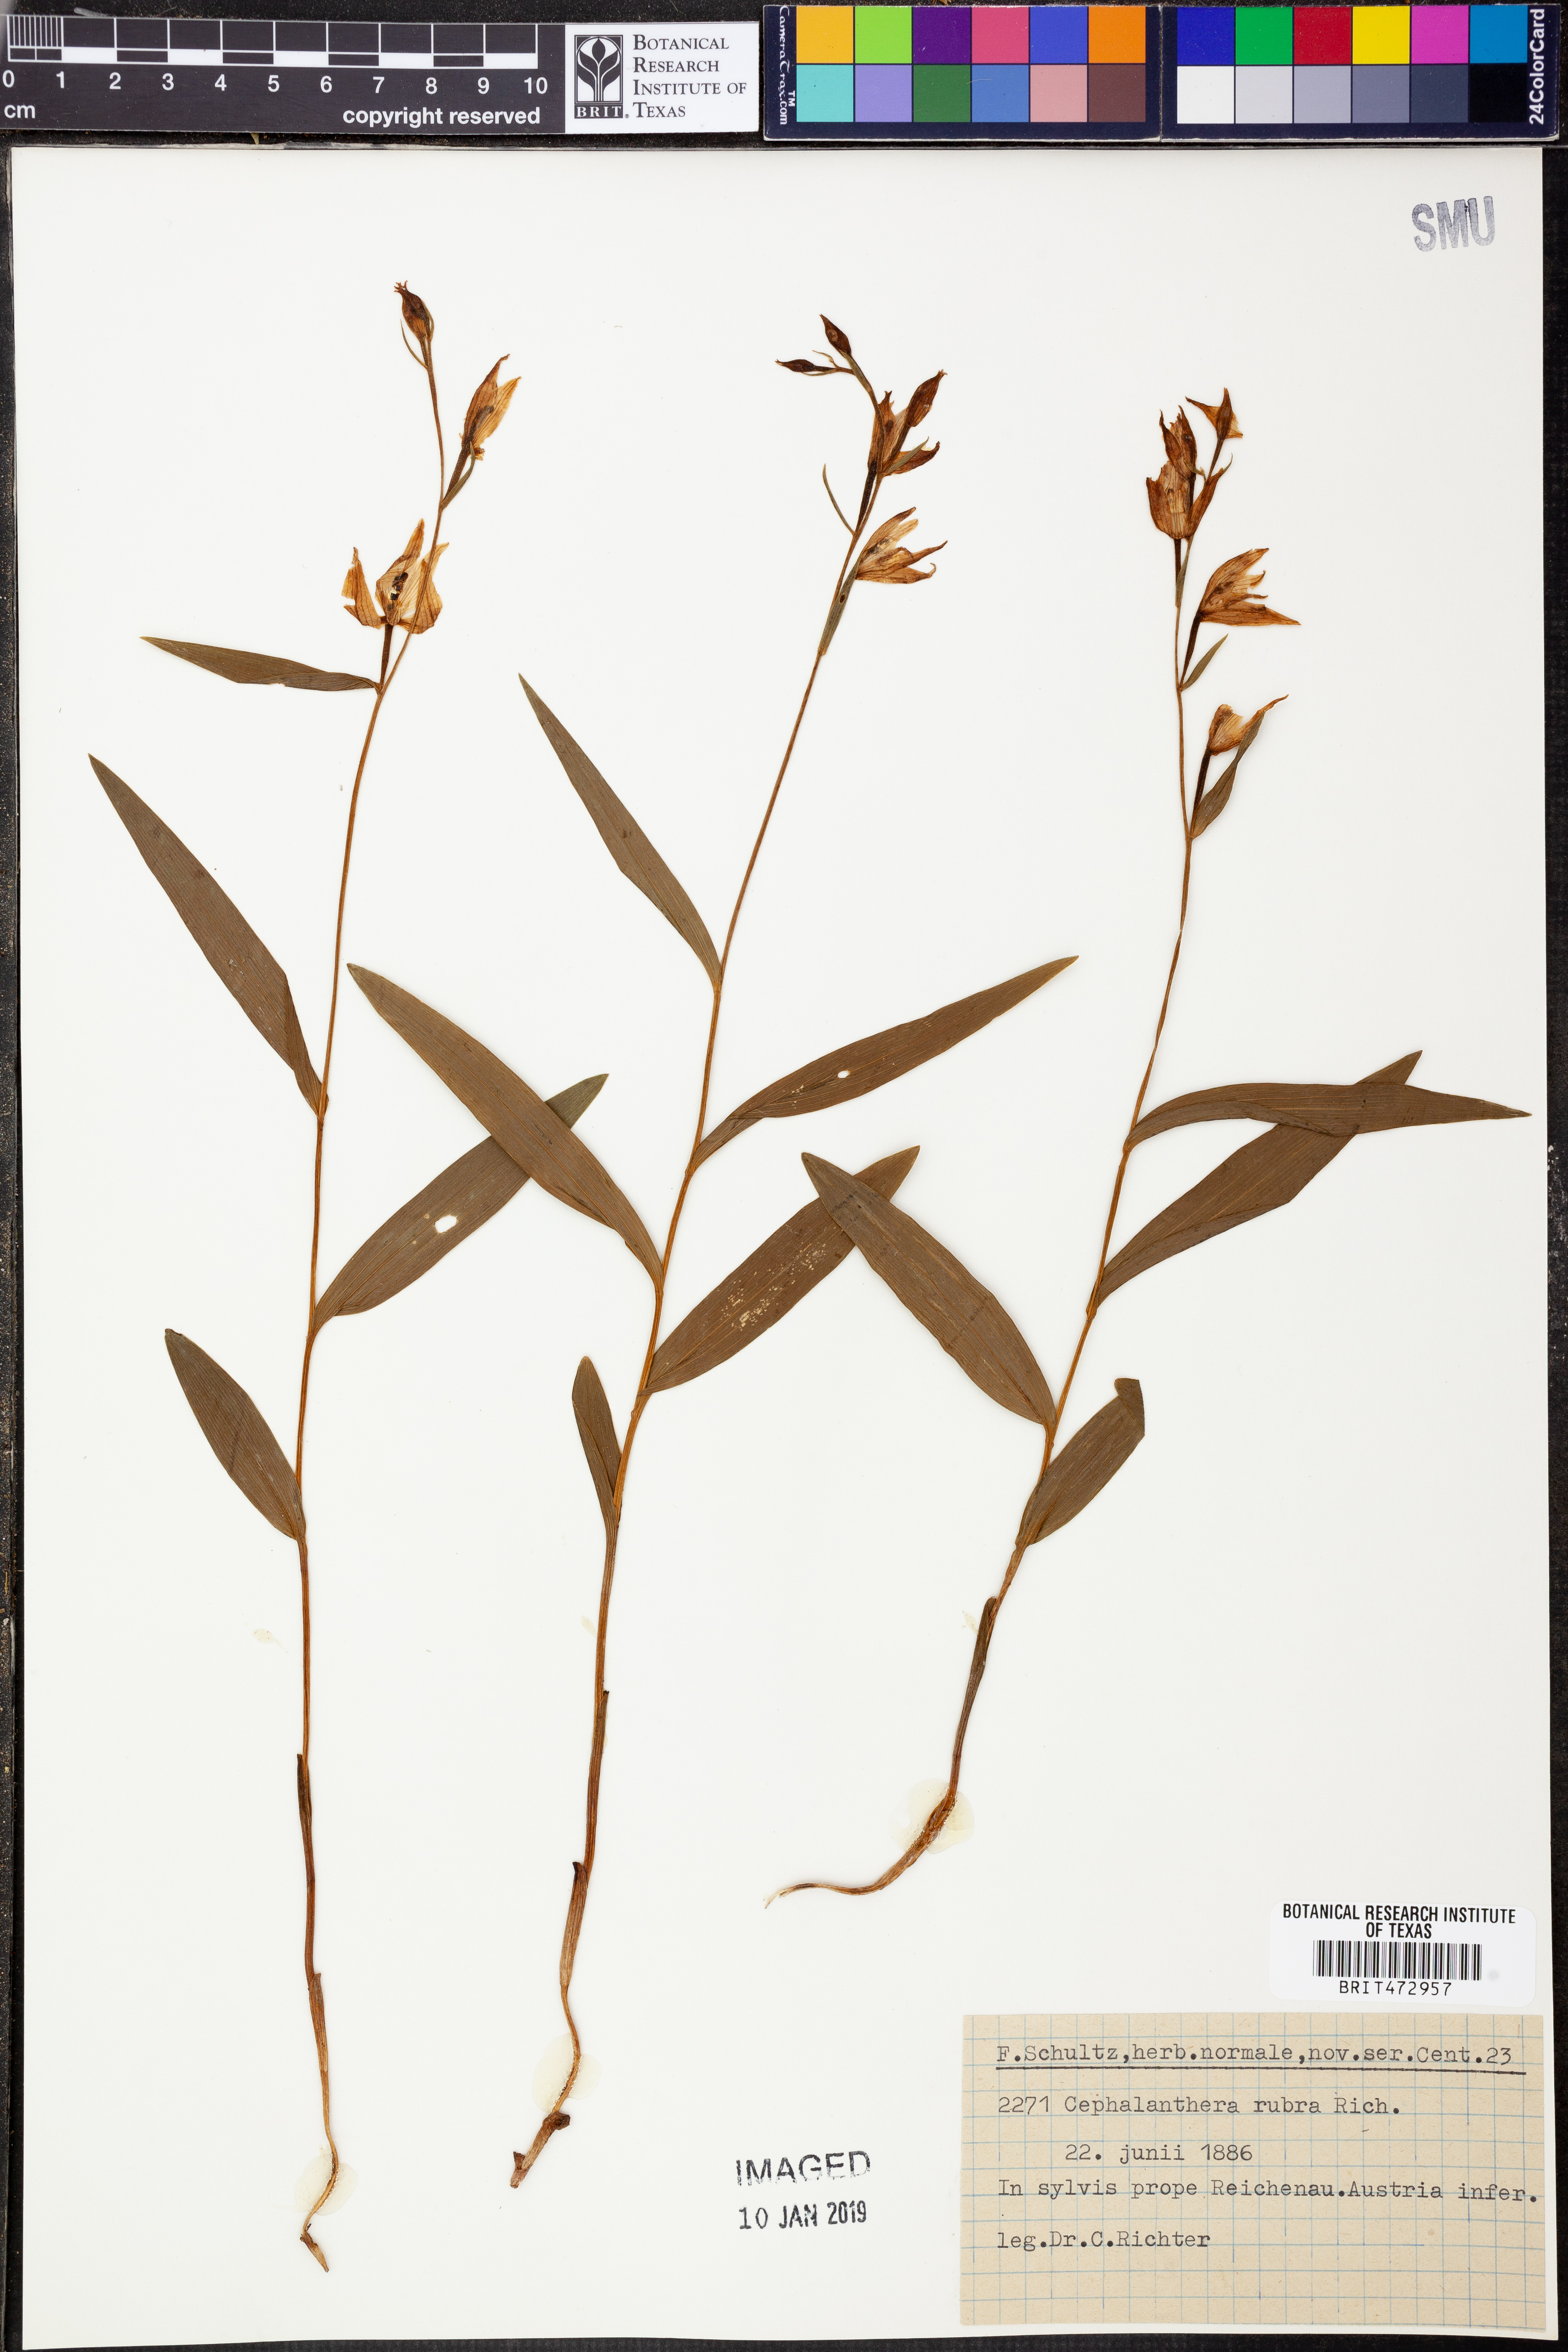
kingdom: Plantae
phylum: Tracheophyta
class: Liliopsida
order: Asparagales
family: Orchidaceae
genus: Cephalanthera
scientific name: Cephalanthera rubra
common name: Red helleborine
